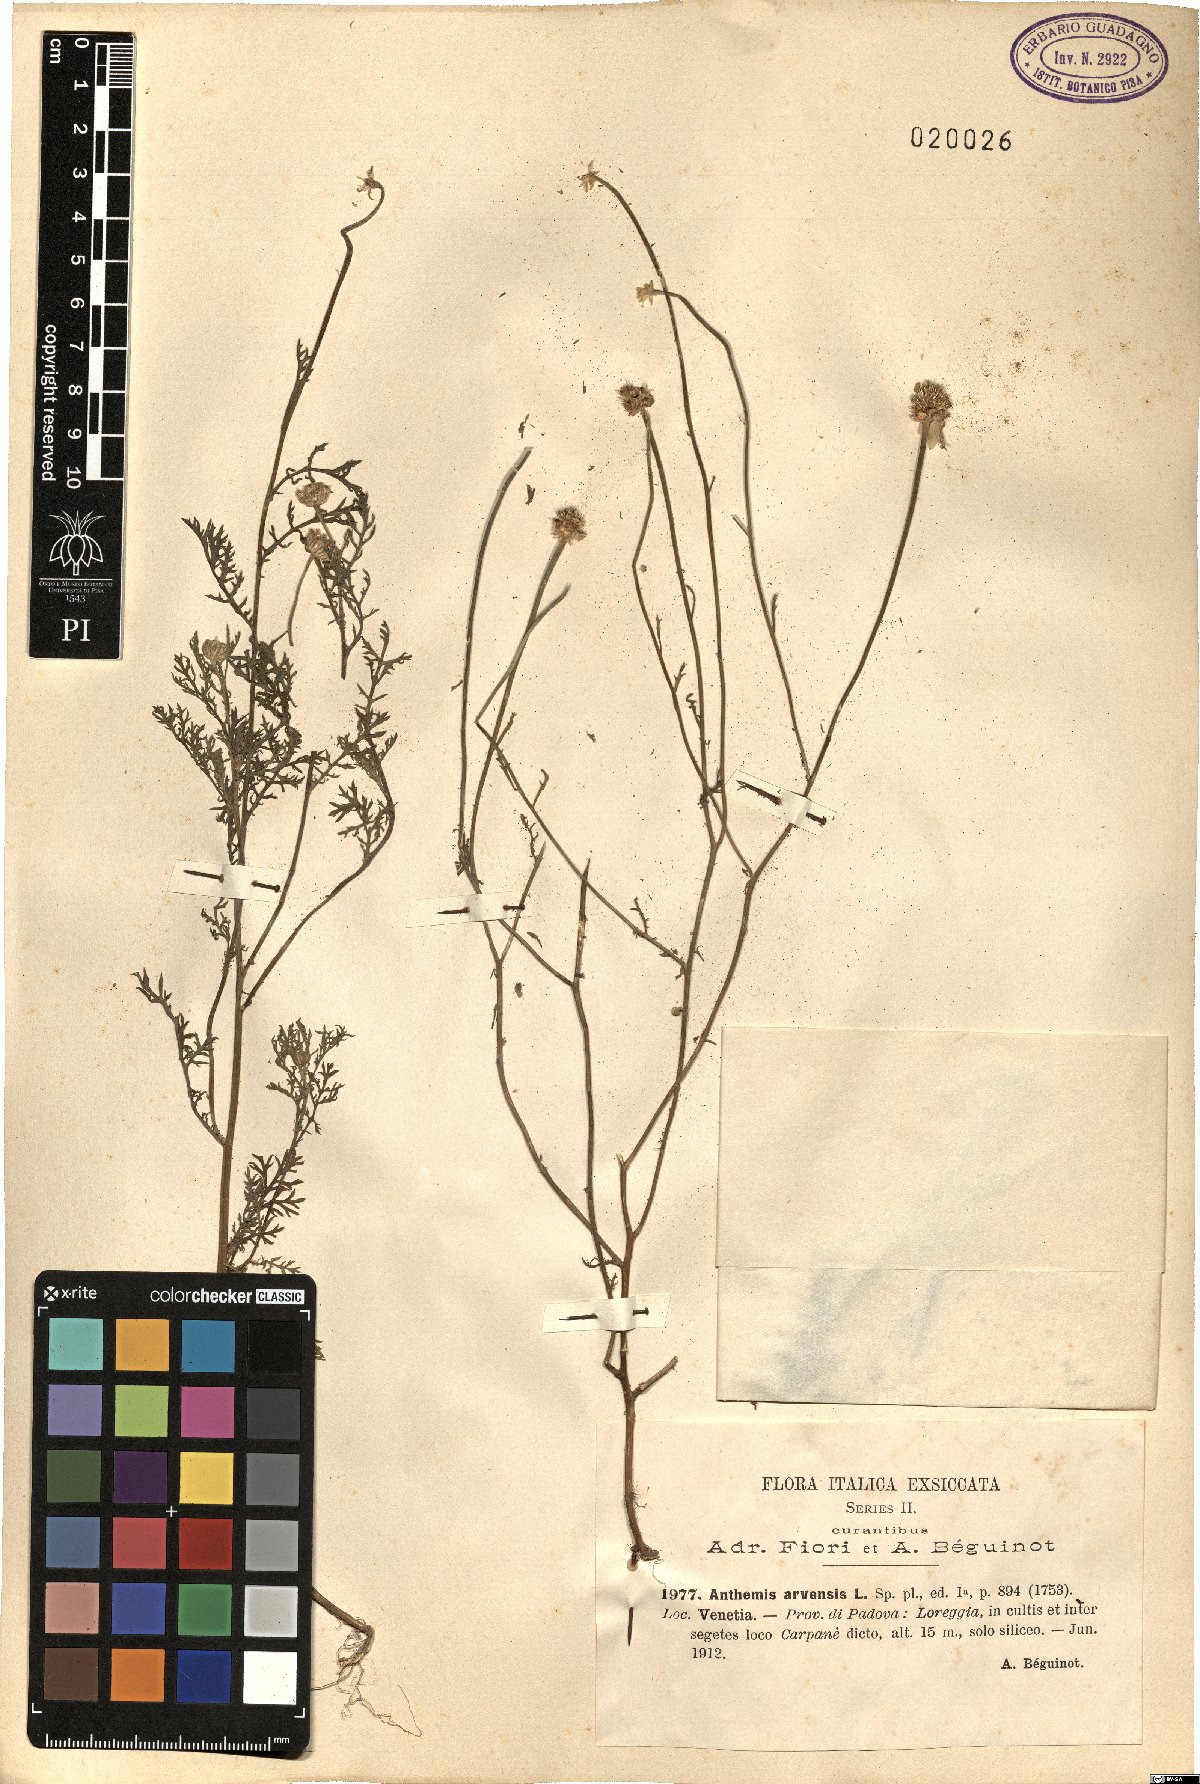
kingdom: Plantae
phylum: Tracheophyta
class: Magnoliopsida
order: Asterales
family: Asteraceae
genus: Anthemis
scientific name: Anthemis arvensis
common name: Corn chamomile
